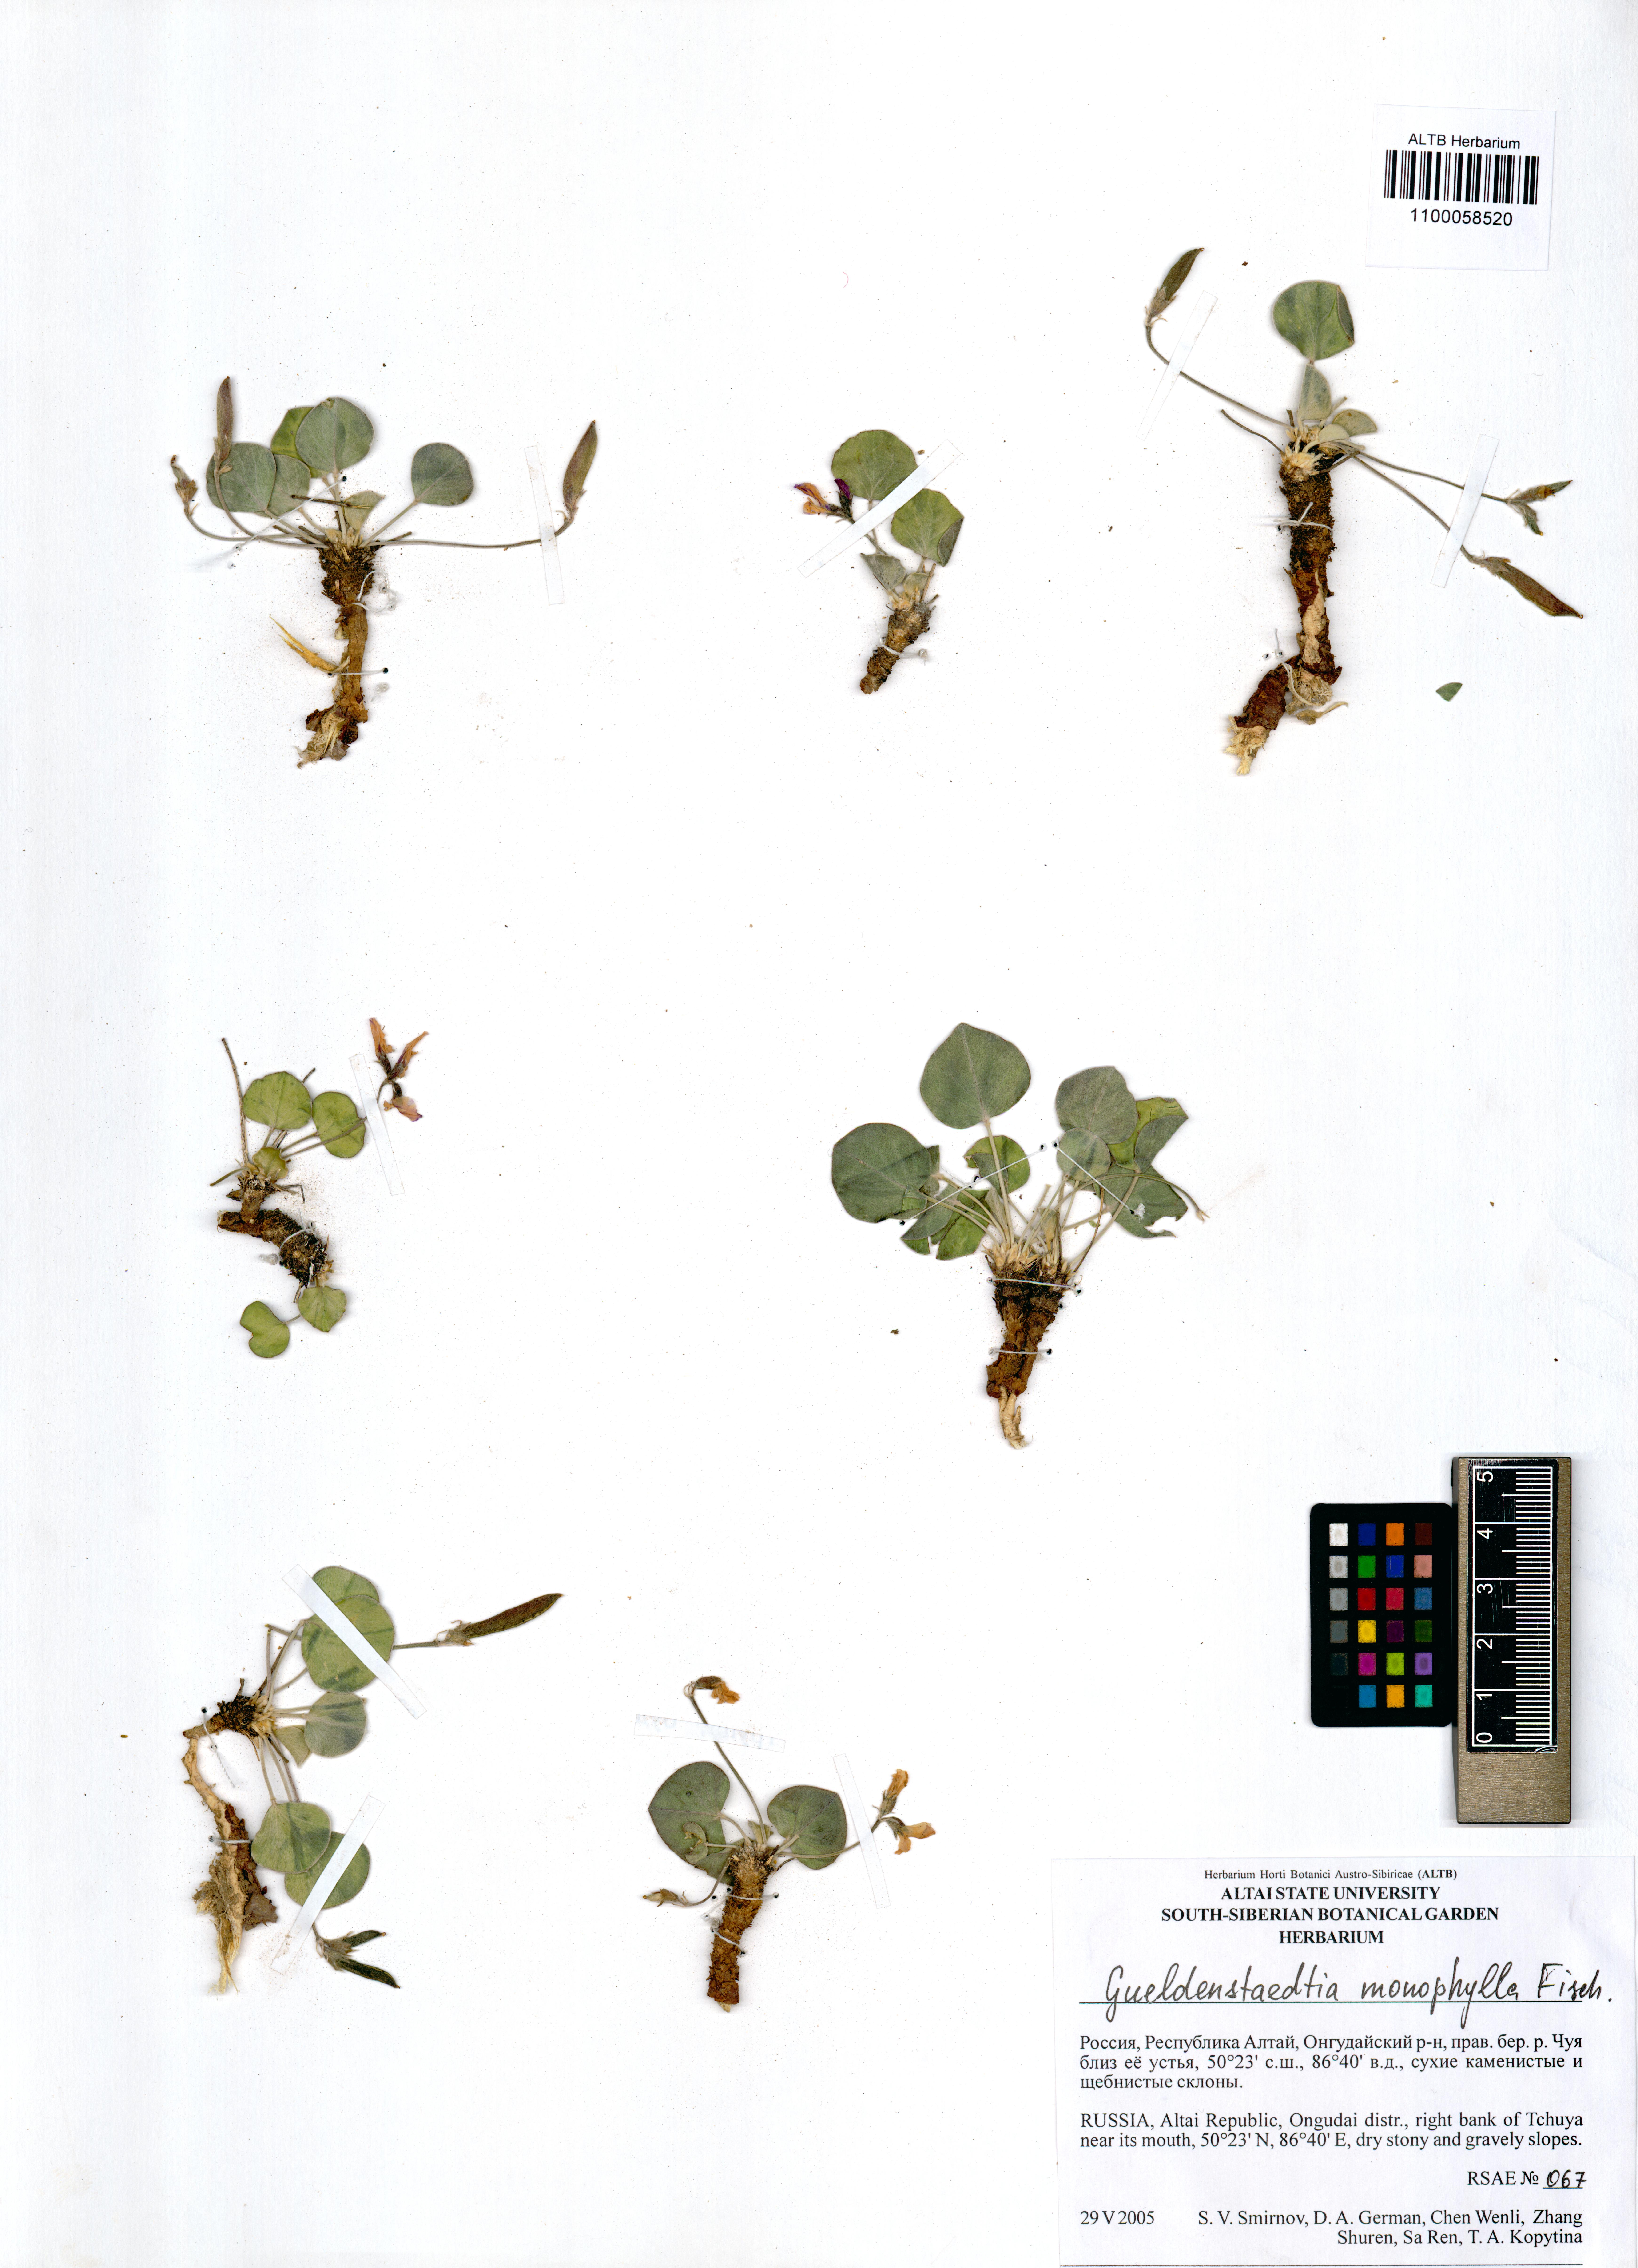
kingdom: Plantae
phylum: Tracheophyta
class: Magnoliopsida
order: Fabales
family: Fabaceae
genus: Gueldenstaedtia
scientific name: Gueldenstaedtia monophylla
